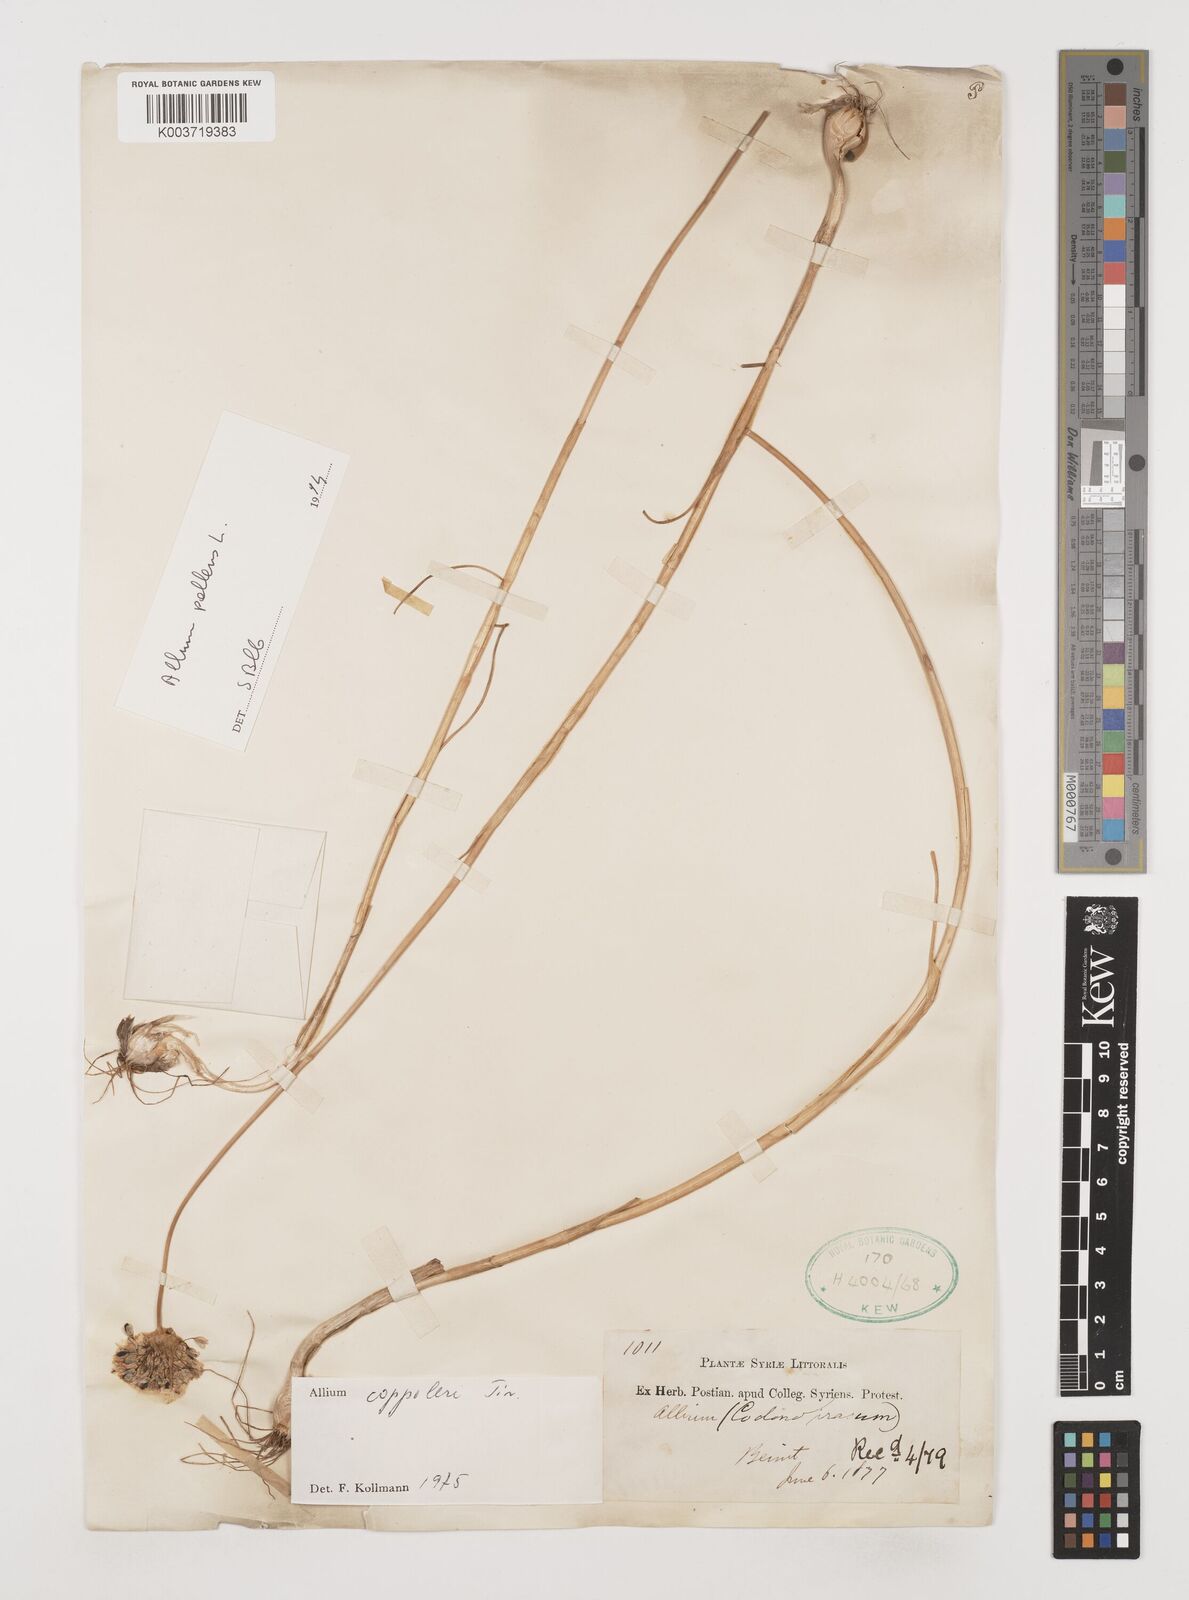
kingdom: Plantae
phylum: Tracheophyta
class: Liliopsida
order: Asparagales
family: Amaryllidaceae
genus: Allium
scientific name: Allium coppoleri
